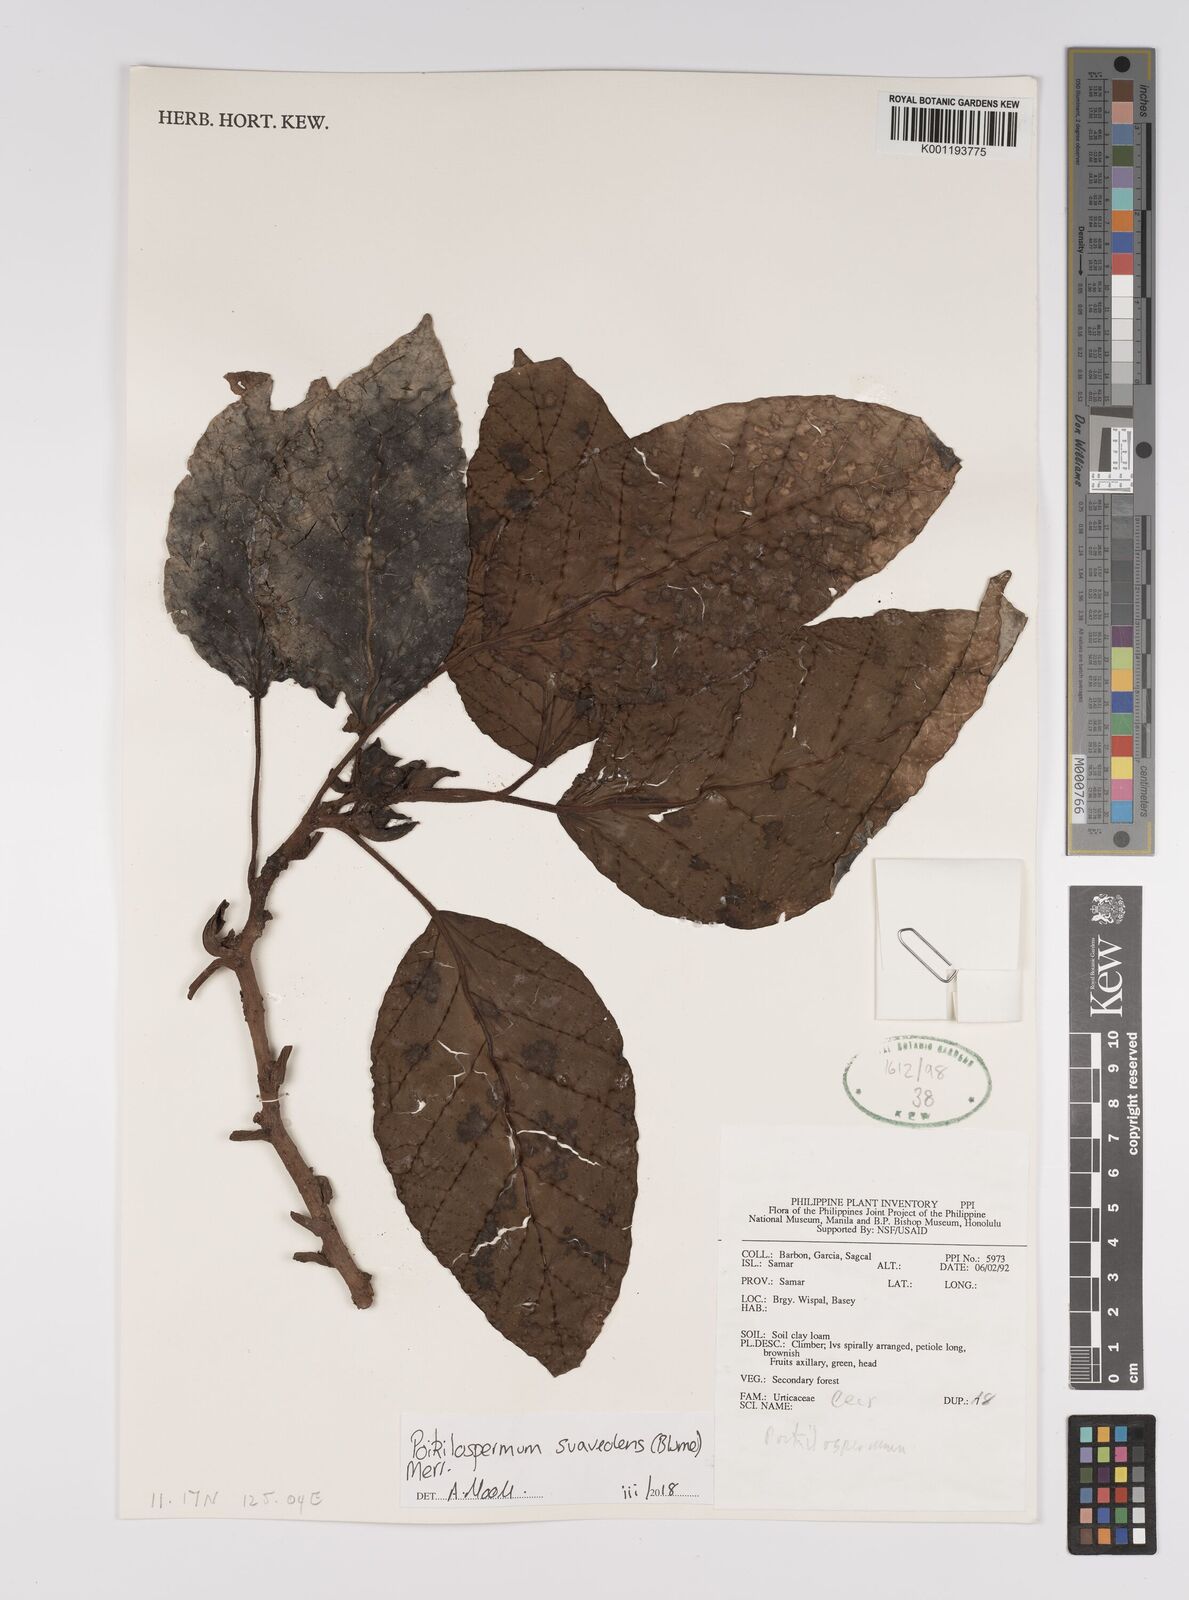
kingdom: Plantae
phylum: Tracheophyta
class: Magnoliopsida
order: Rosales
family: Urticaceae
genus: Poikilospermum
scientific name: Poikilospermum suaveolens
